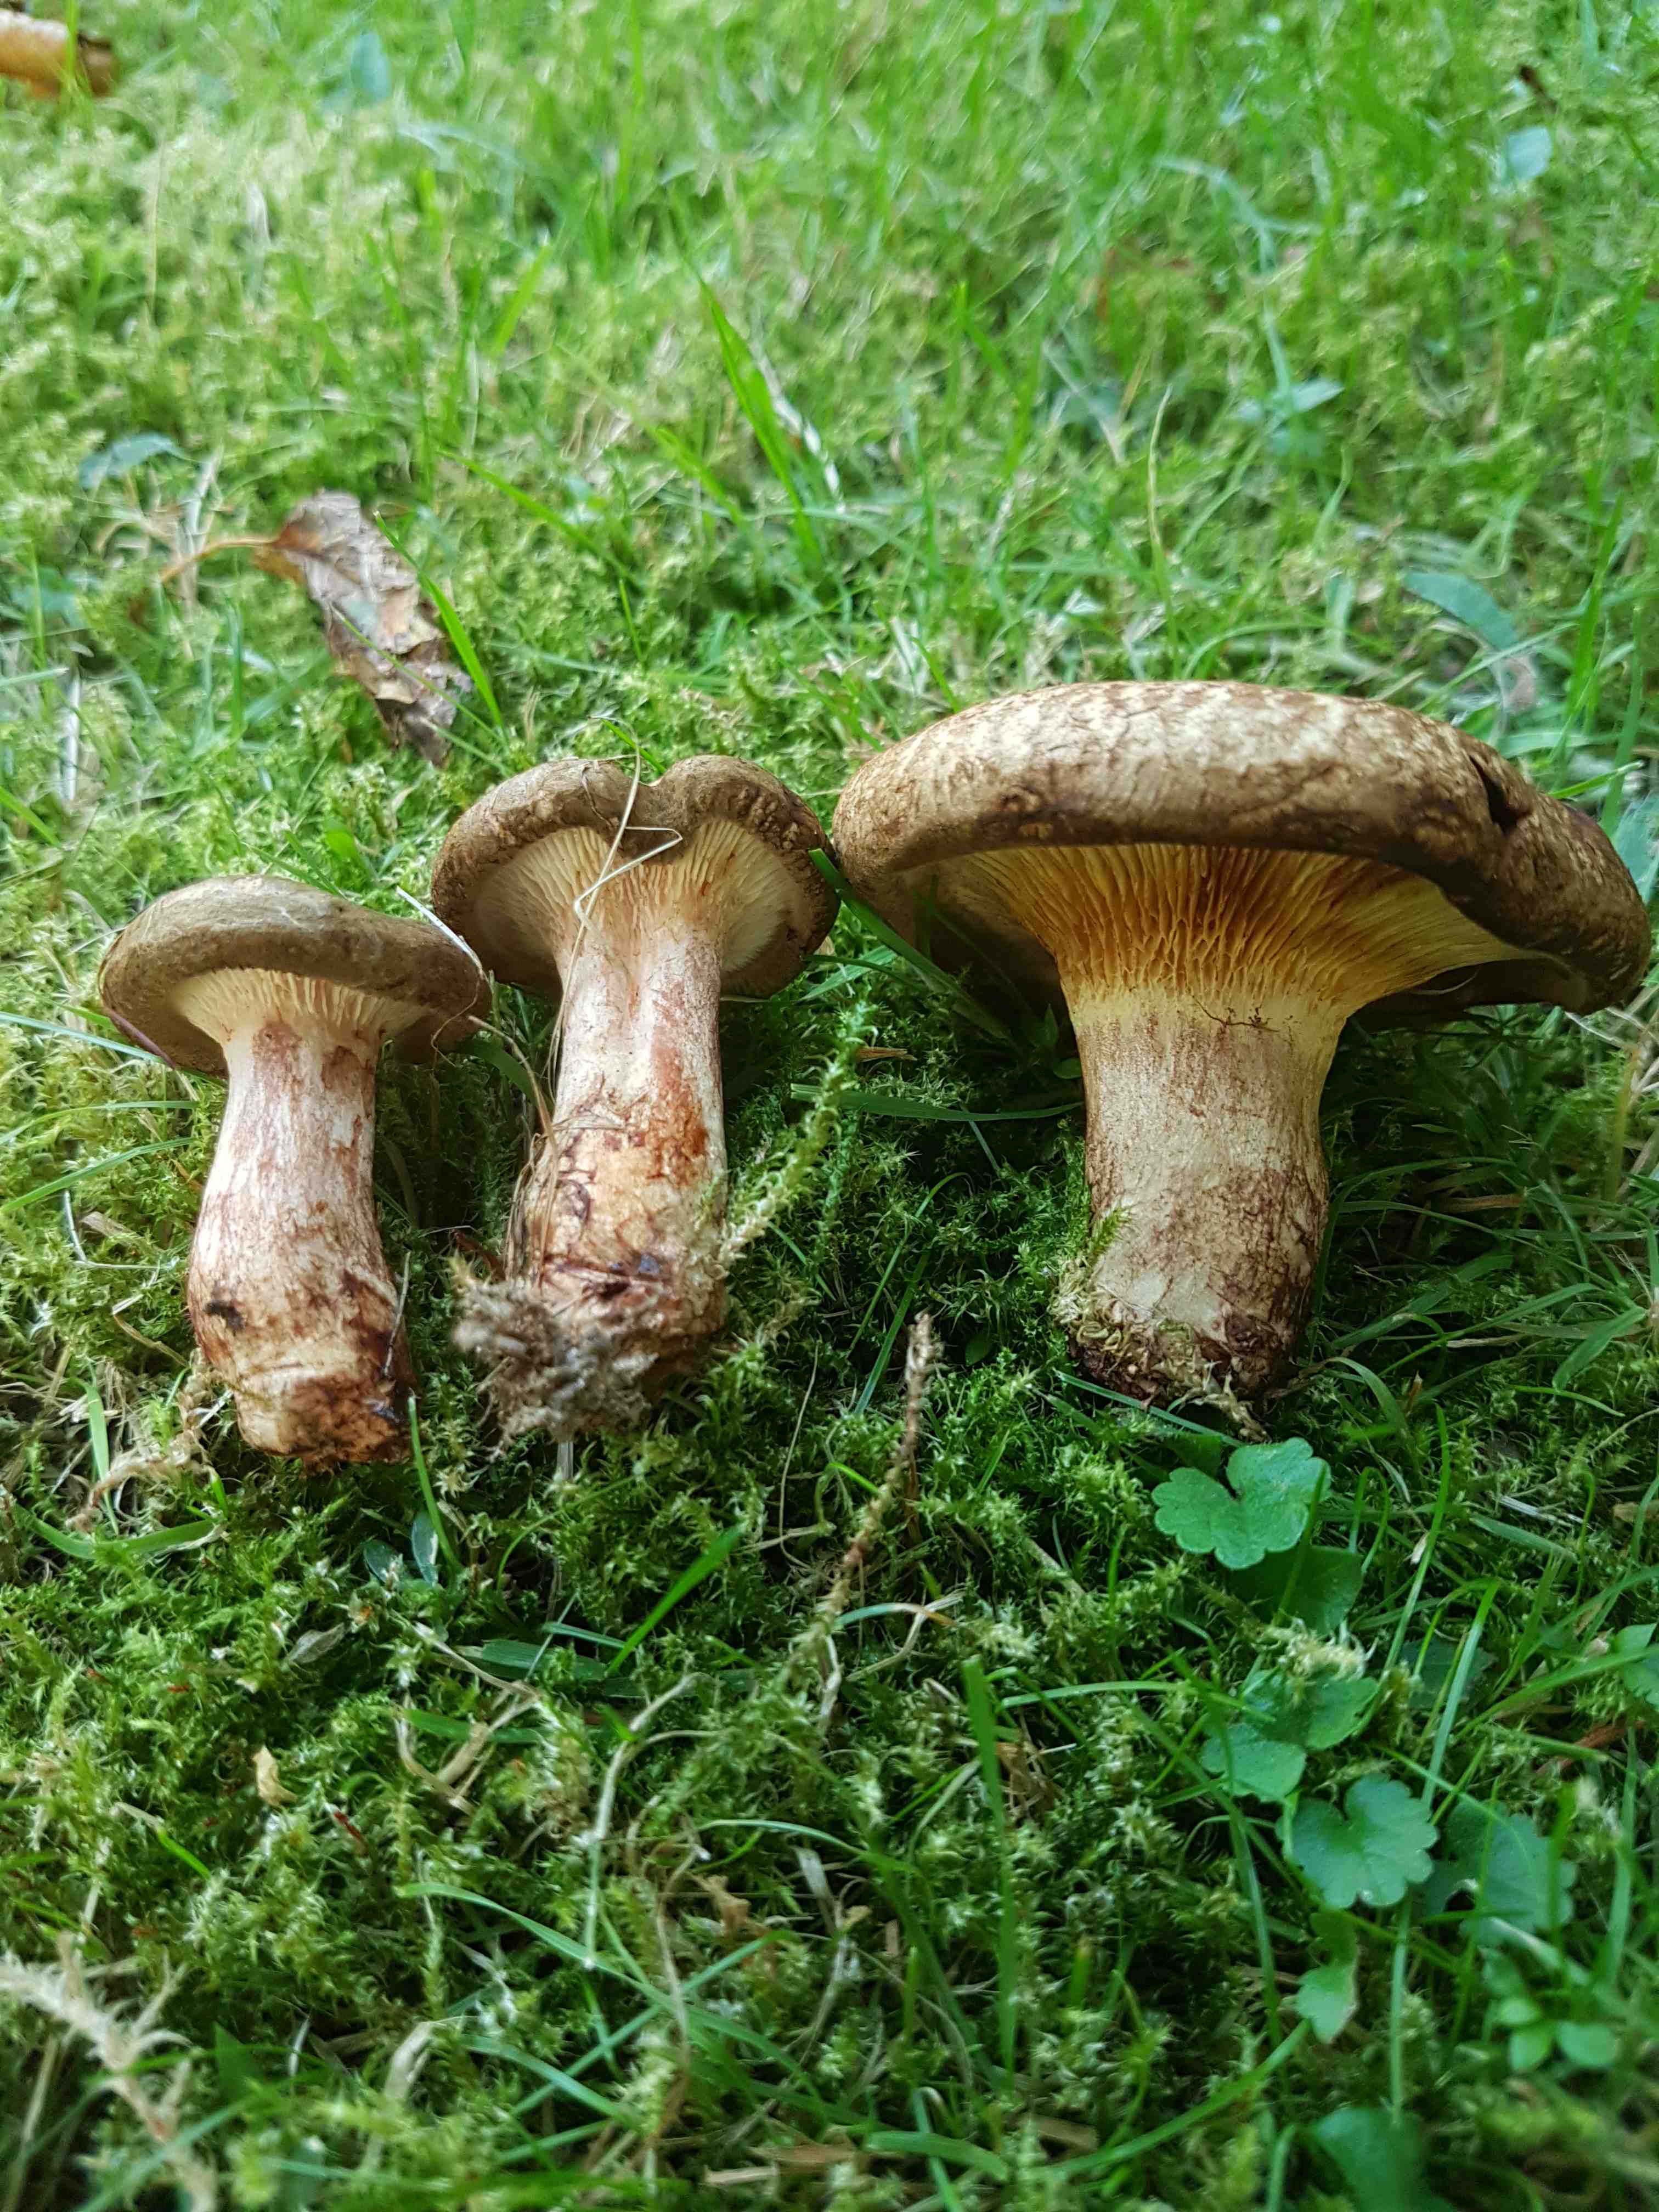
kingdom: Fungi
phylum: Basidiomycota
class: Agaricomycetes
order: Boletales
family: Paxillaceae
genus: Paxillus
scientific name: Paxillus involutus
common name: almindelig netbladhat
